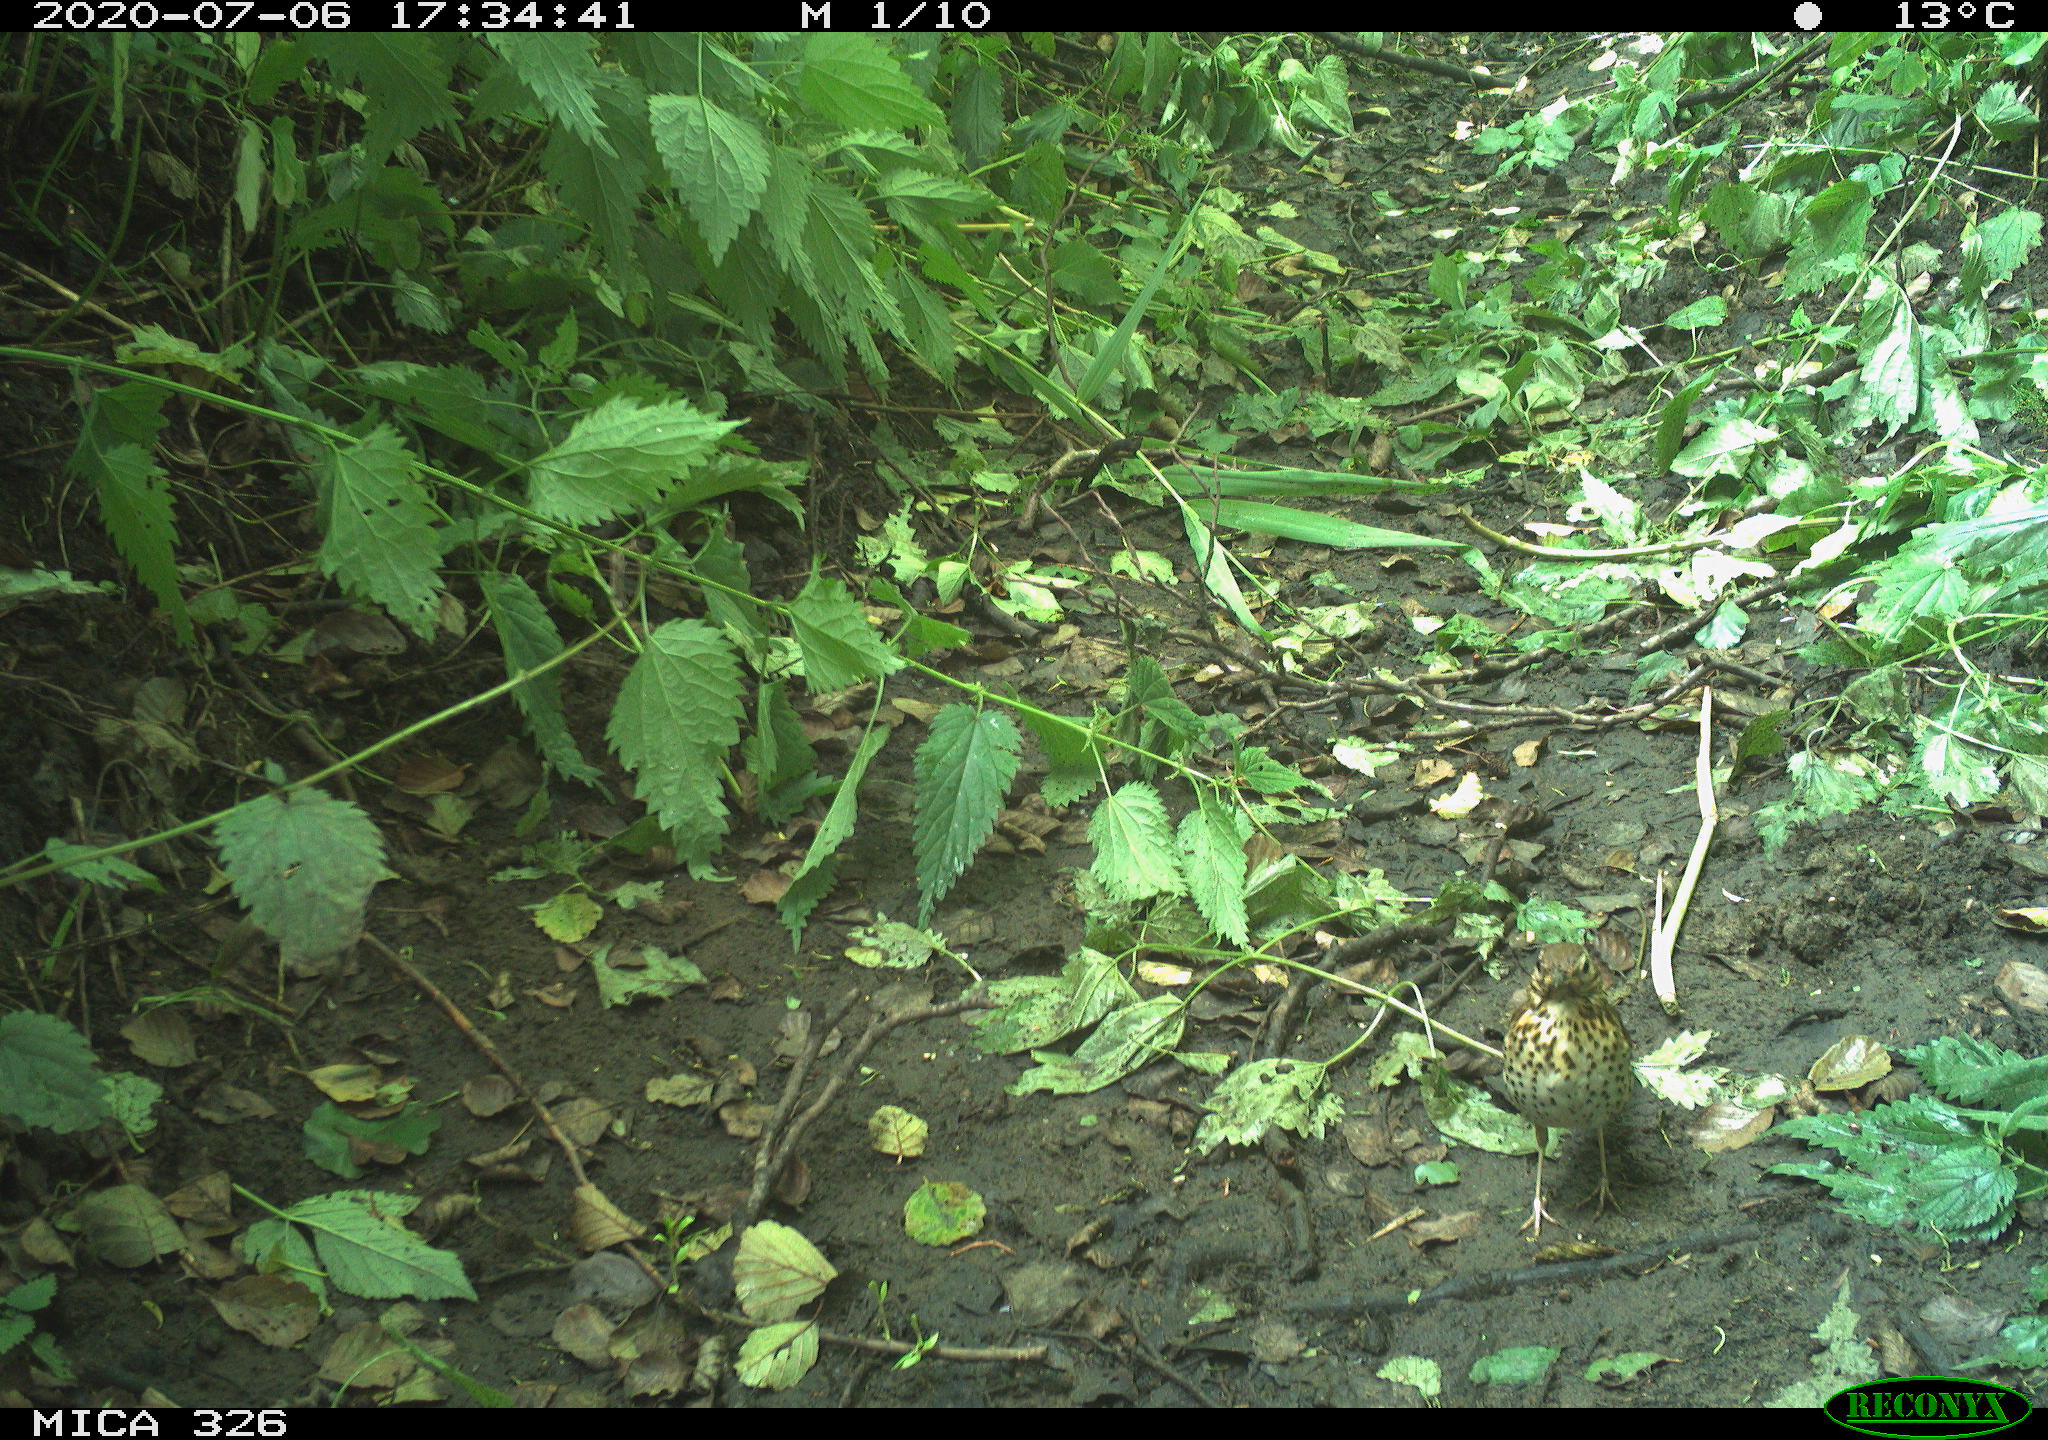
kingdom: Animalia
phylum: Chordata
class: Aves
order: Passeriformes
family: Turdidae
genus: Turdus
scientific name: Turdus philomelos
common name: Song thrush
